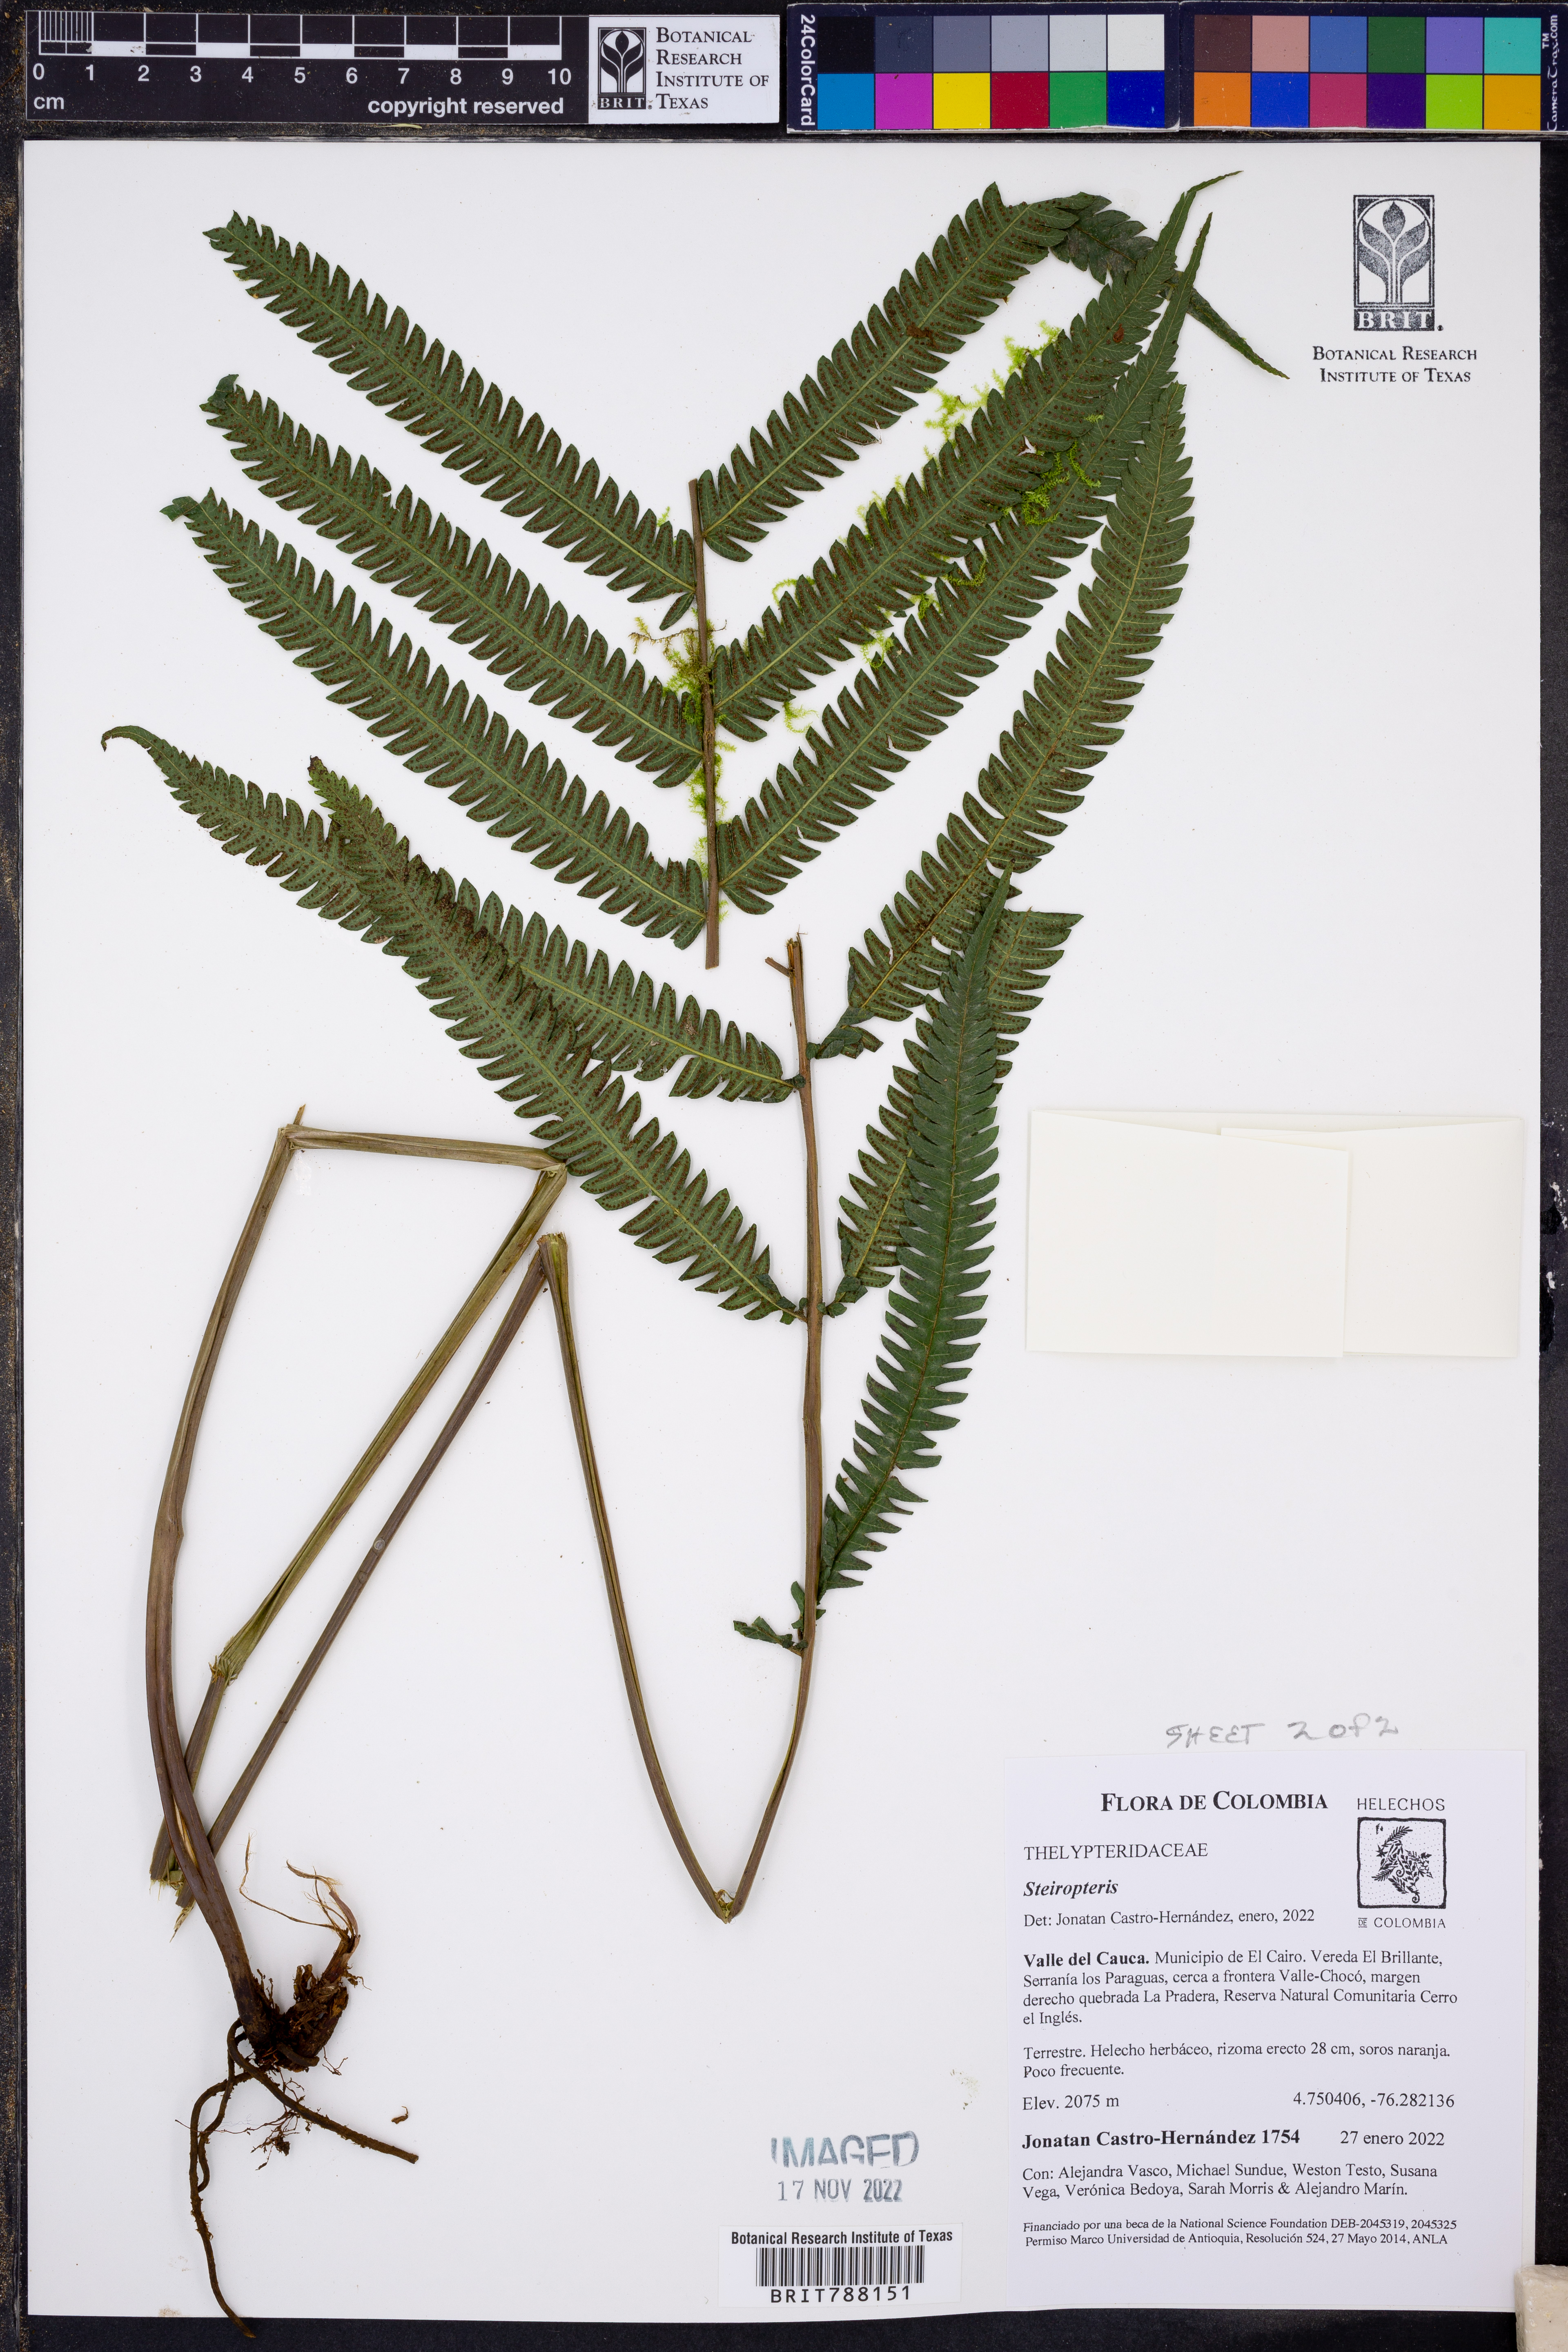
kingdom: Plantae
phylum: Tracheophyta
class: Polypodiopsida
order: Polypodiales
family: Thelypteridaceae
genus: Steiropteris
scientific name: Steiropteris
